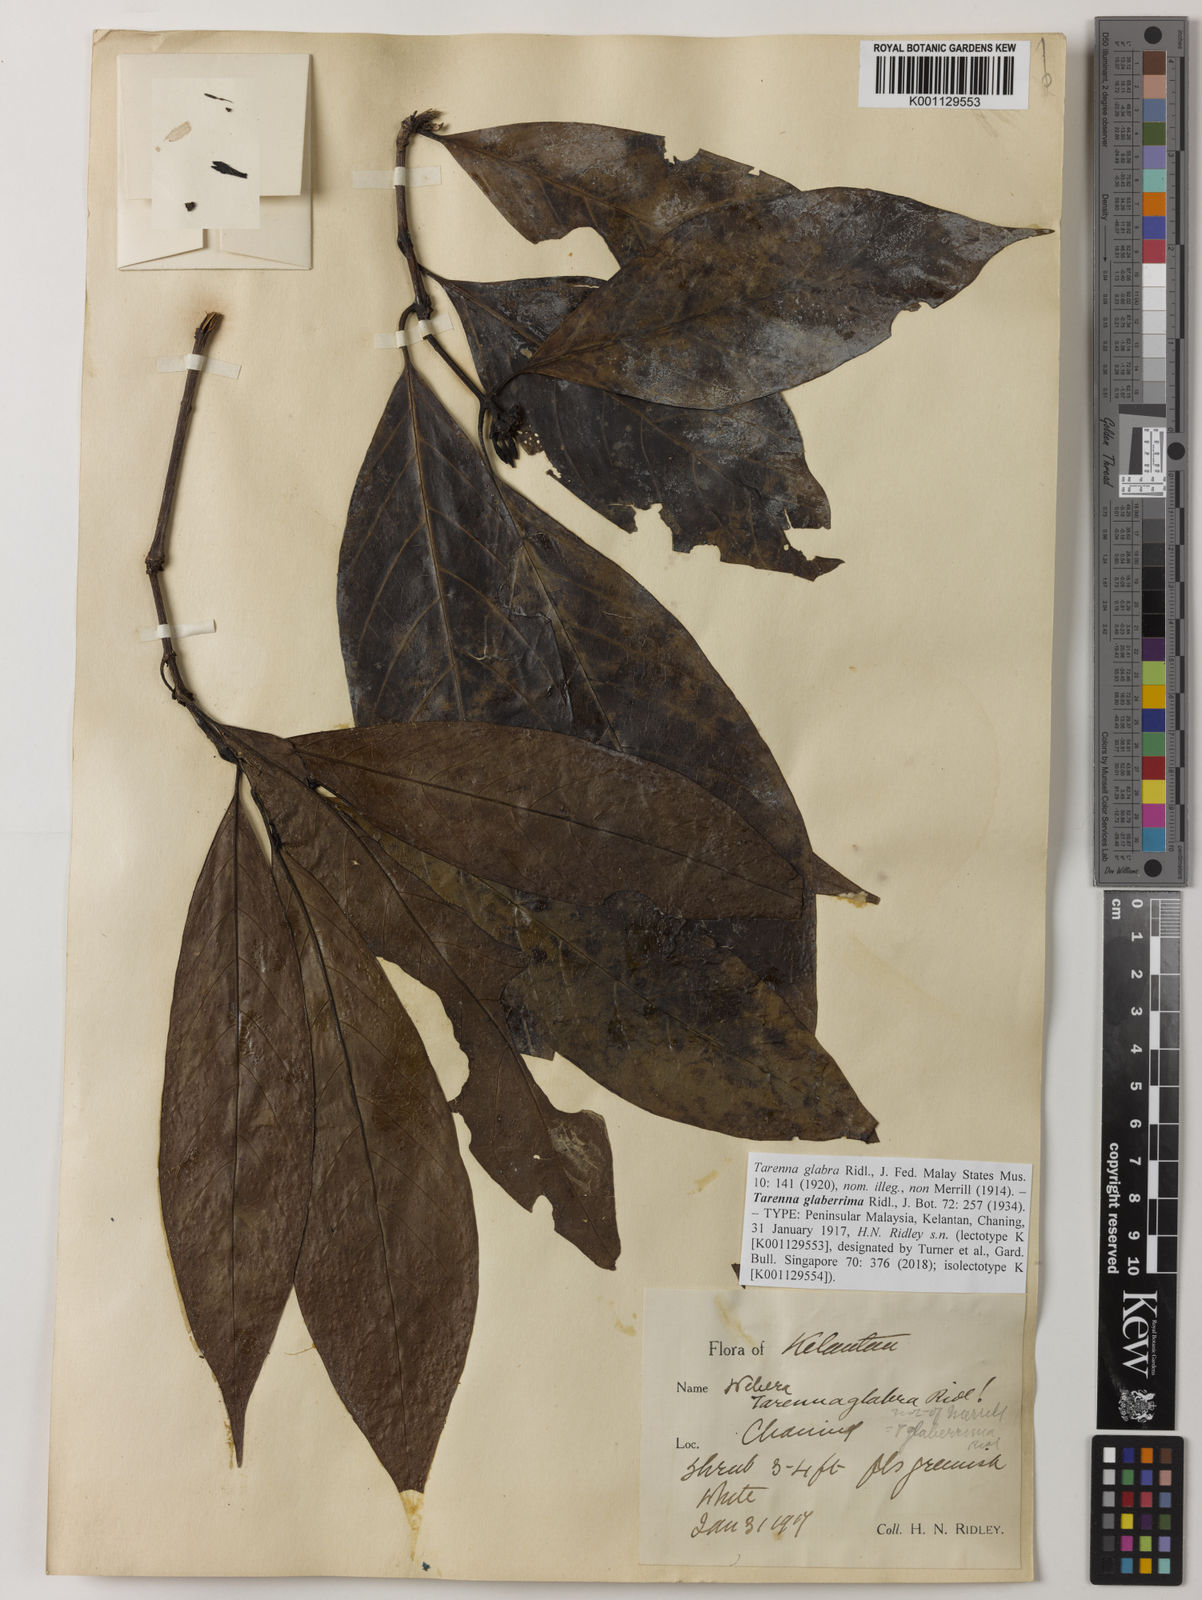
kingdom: Plantae
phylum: Tracheophyta
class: Magnoliopsida
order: Gentianales
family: Rubiaceae
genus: Tarenna
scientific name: Tarenna glaberrima
